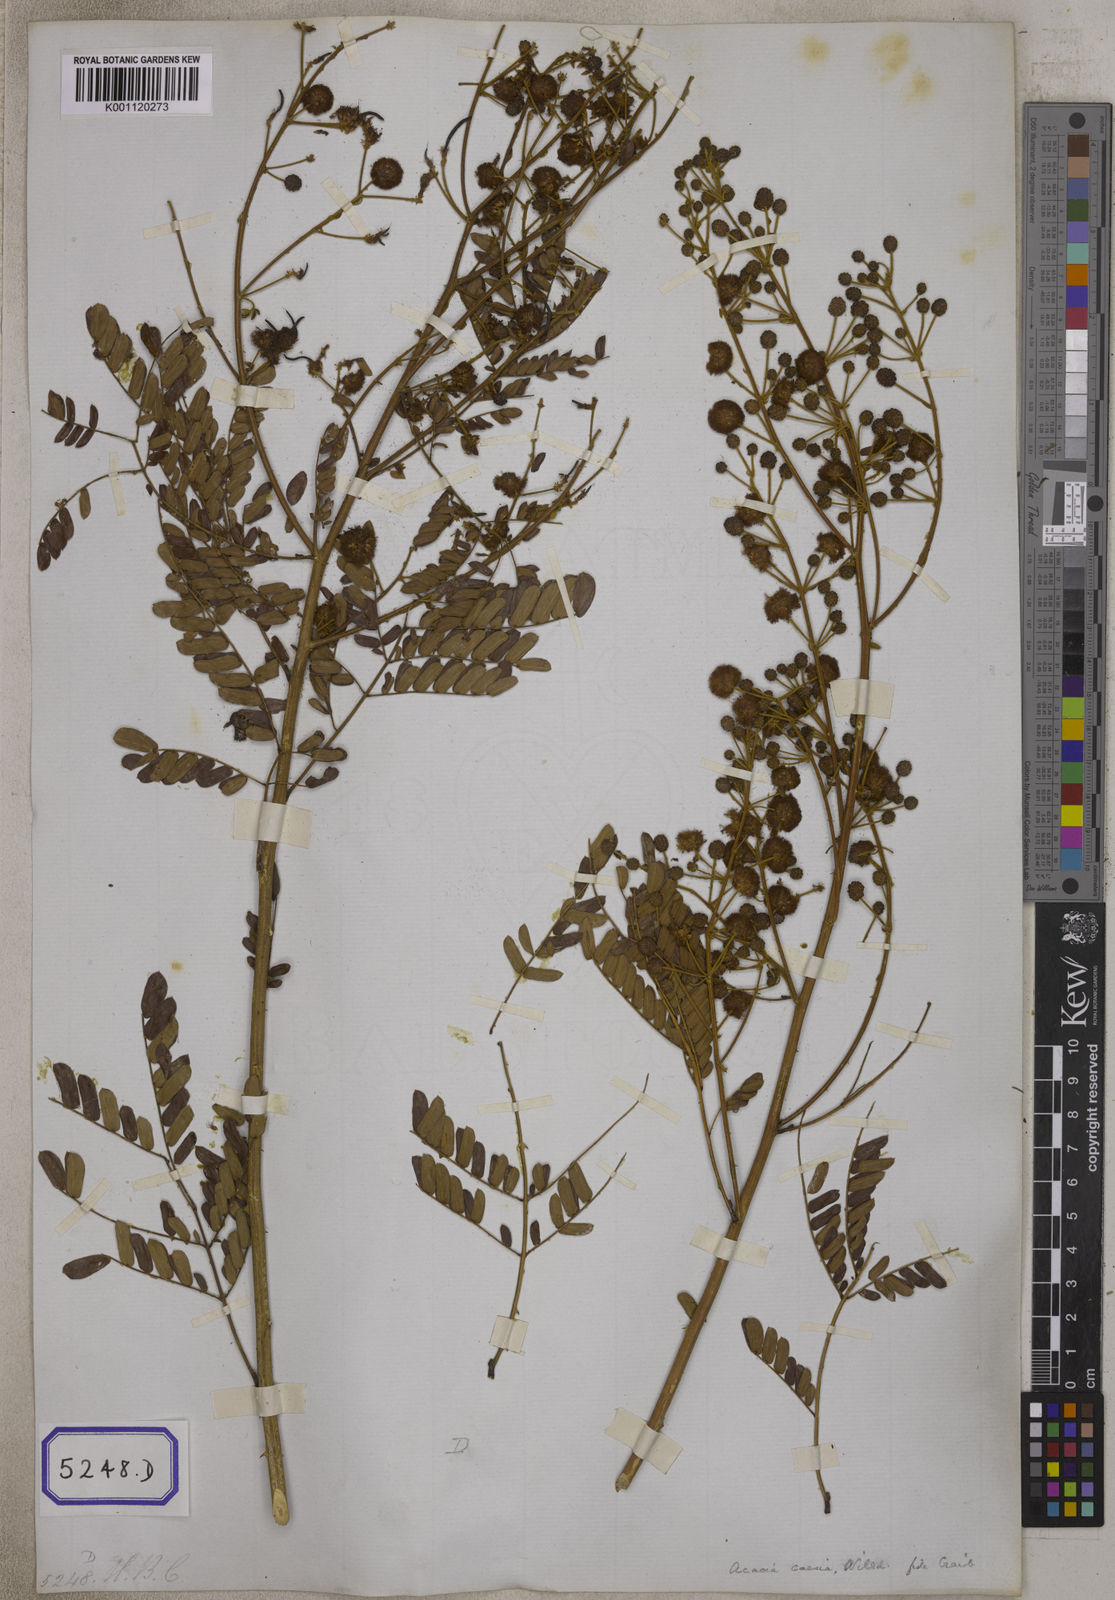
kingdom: Plantae
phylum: Tracheophyta
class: Magnoliopsida
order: Fabales
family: Fabaceae
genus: Senegalia
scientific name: Senegalia intsia
